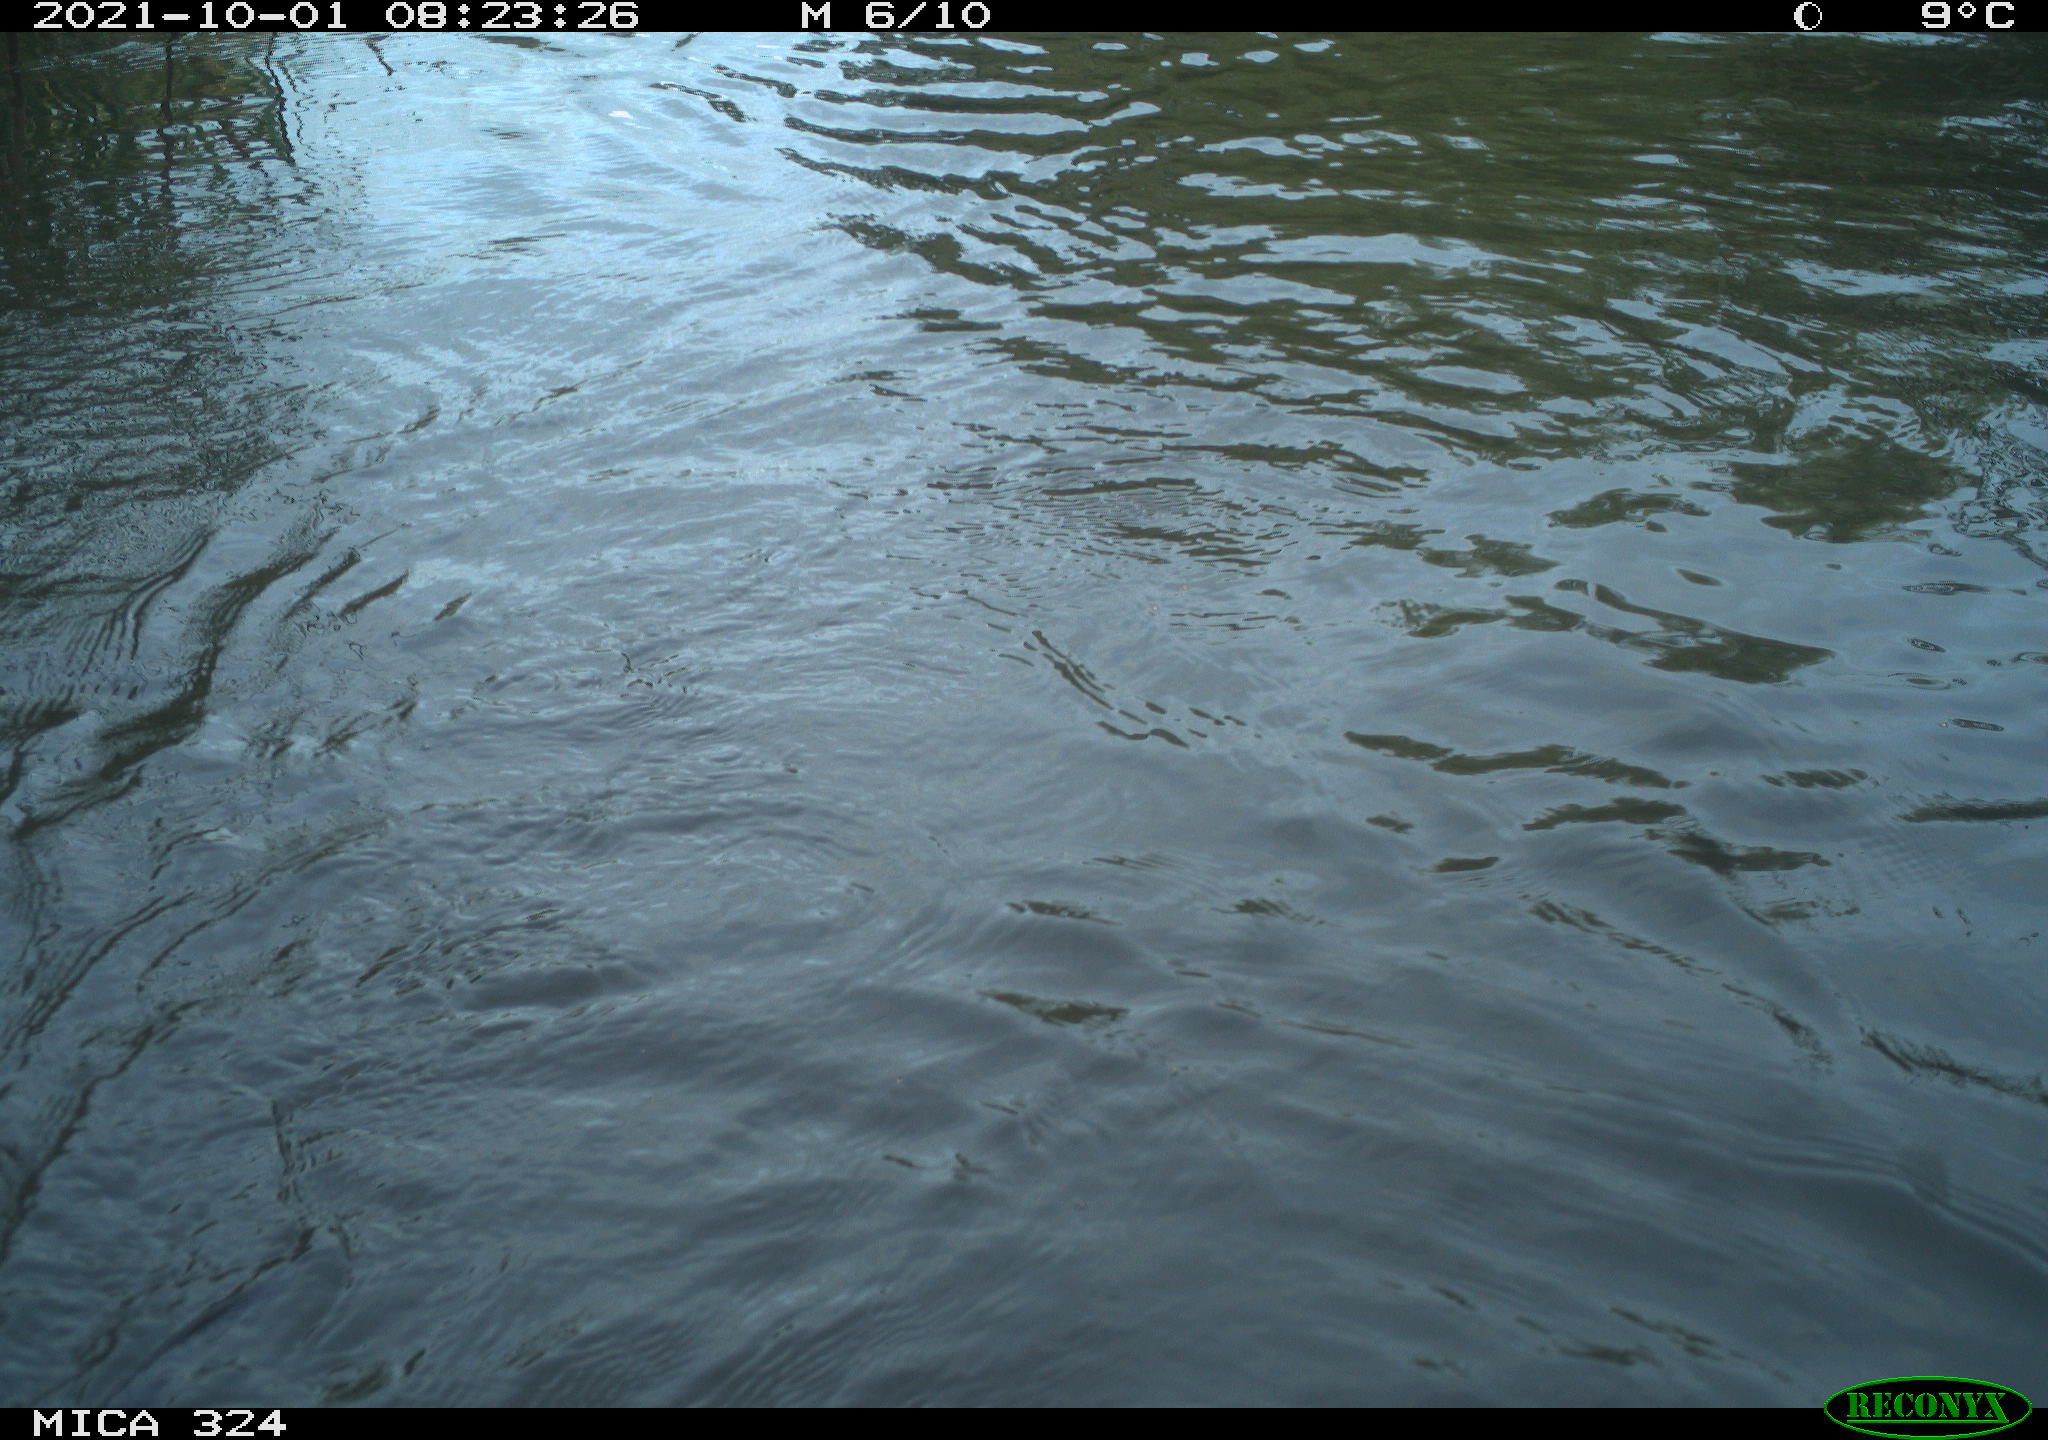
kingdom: Animalia
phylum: Chordata
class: Mammalia
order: Rodentia
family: Cricetidae
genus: Ondatra
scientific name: Ondatra zibethicus
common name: Muskrat
